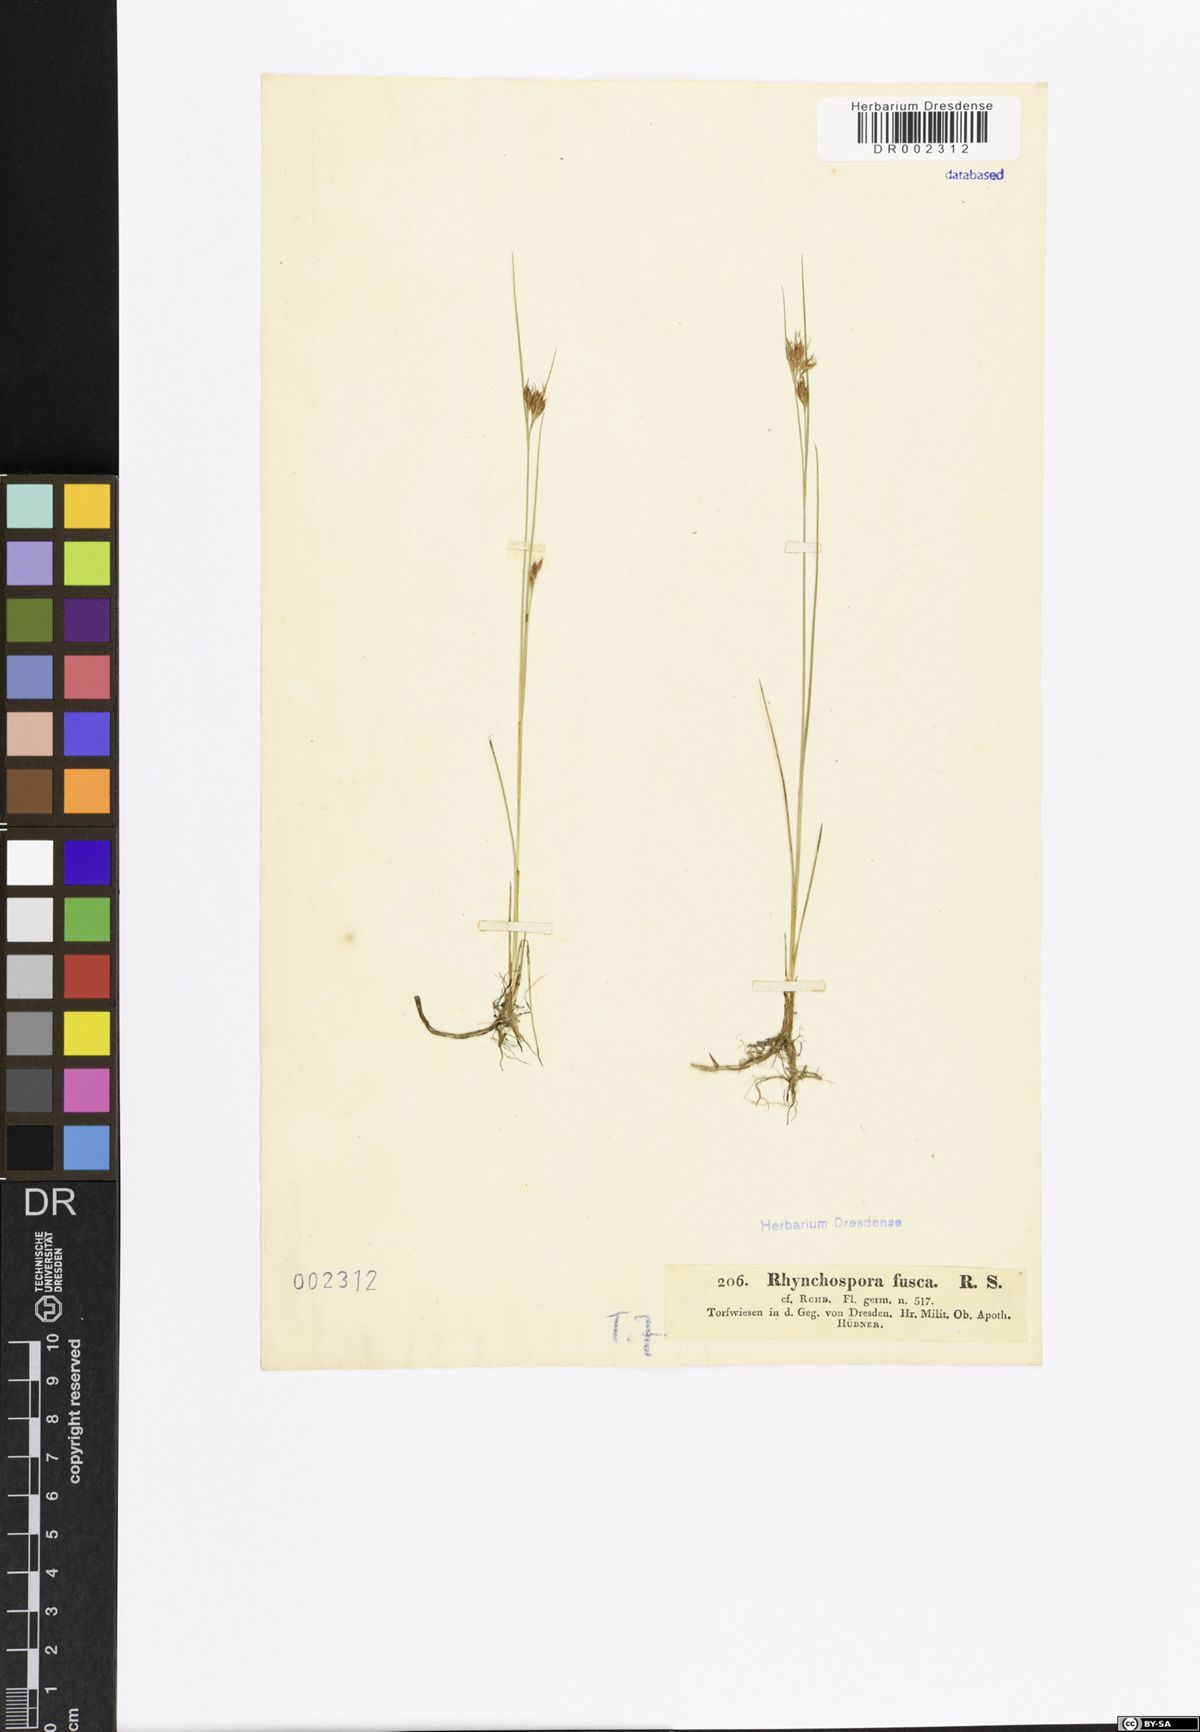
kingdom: Plantae
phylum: Tracheophyta
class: Liliopsida
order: Poales
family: Cyperaceae
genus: Rhynchospora
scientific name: Rhynchospora fusca
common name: Brown beak-sedge
